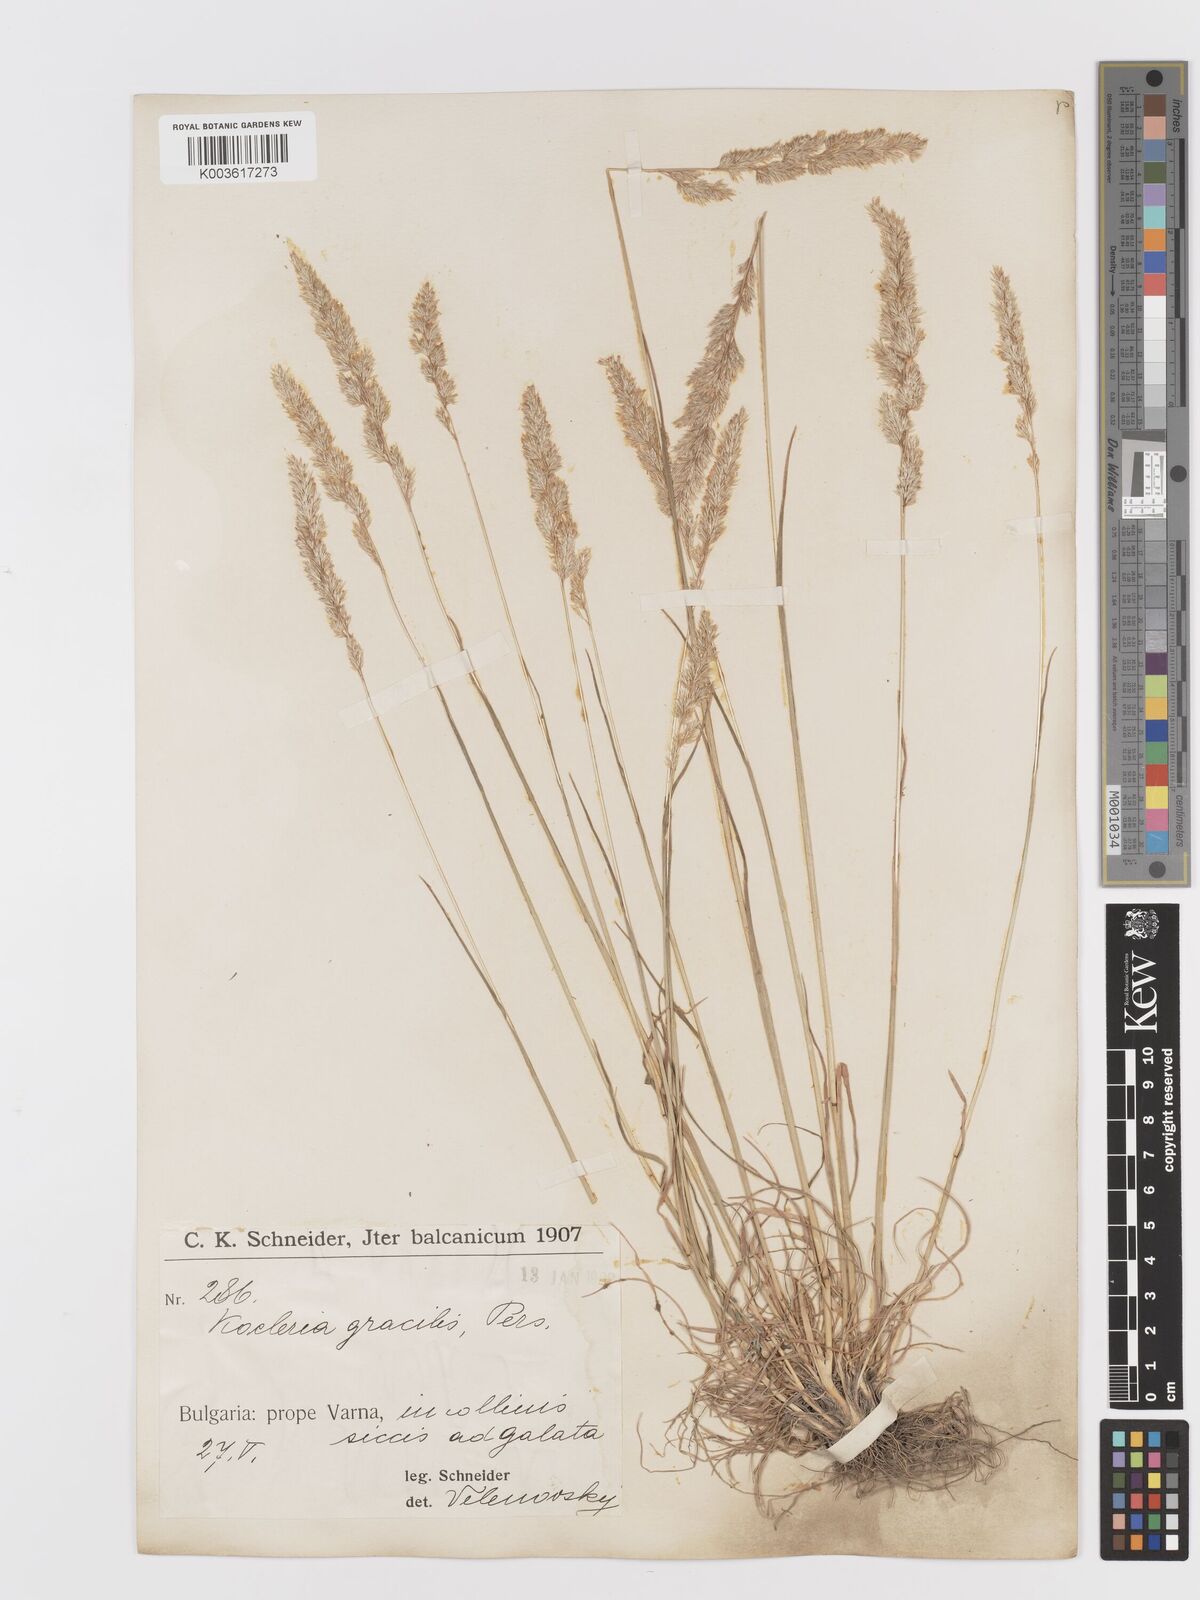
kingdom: Plantae
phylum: Tracheophyta
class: Liliopsida
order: Poales
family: Poaceae
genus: Koeleria
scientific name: Koeleria macrantha
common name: Crested hair-grass
